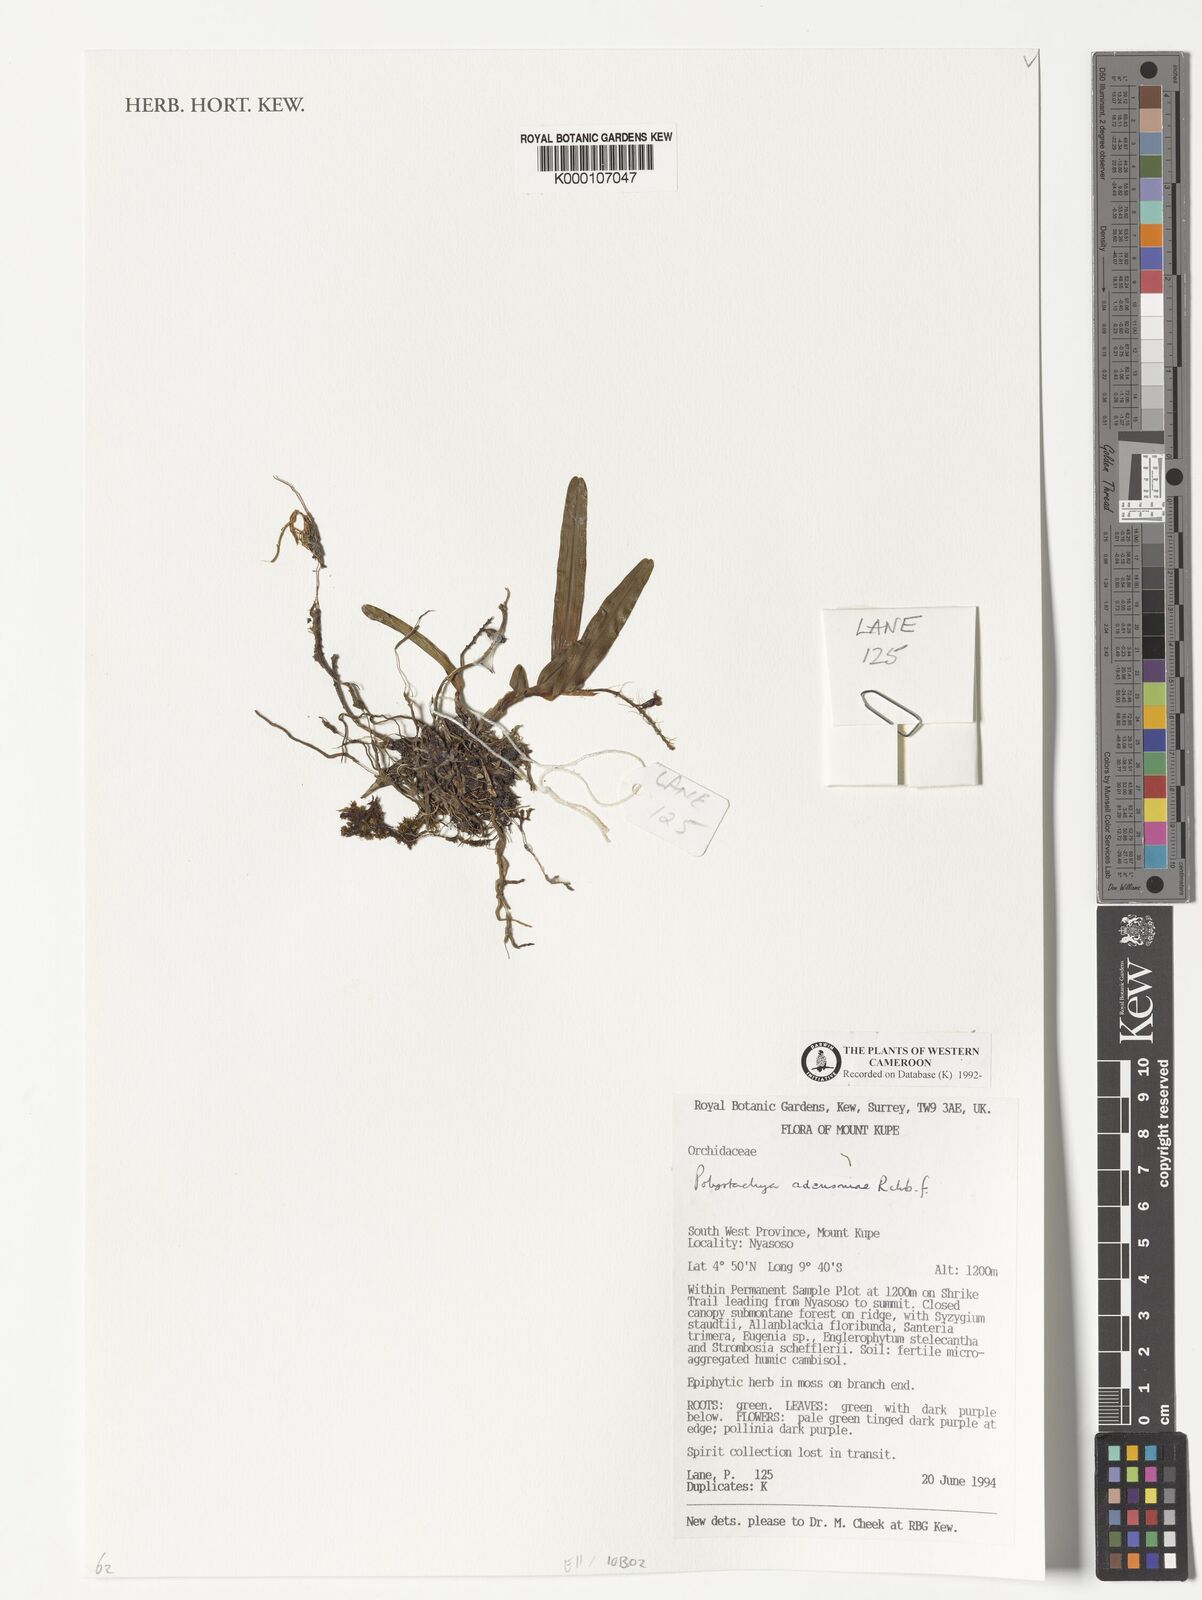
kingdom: Plantae
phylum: Tracheophyta
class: Liliopsida
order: Asparagales
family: Orchidaceae
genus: Polystachya
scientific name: Polystachya adansoniae
